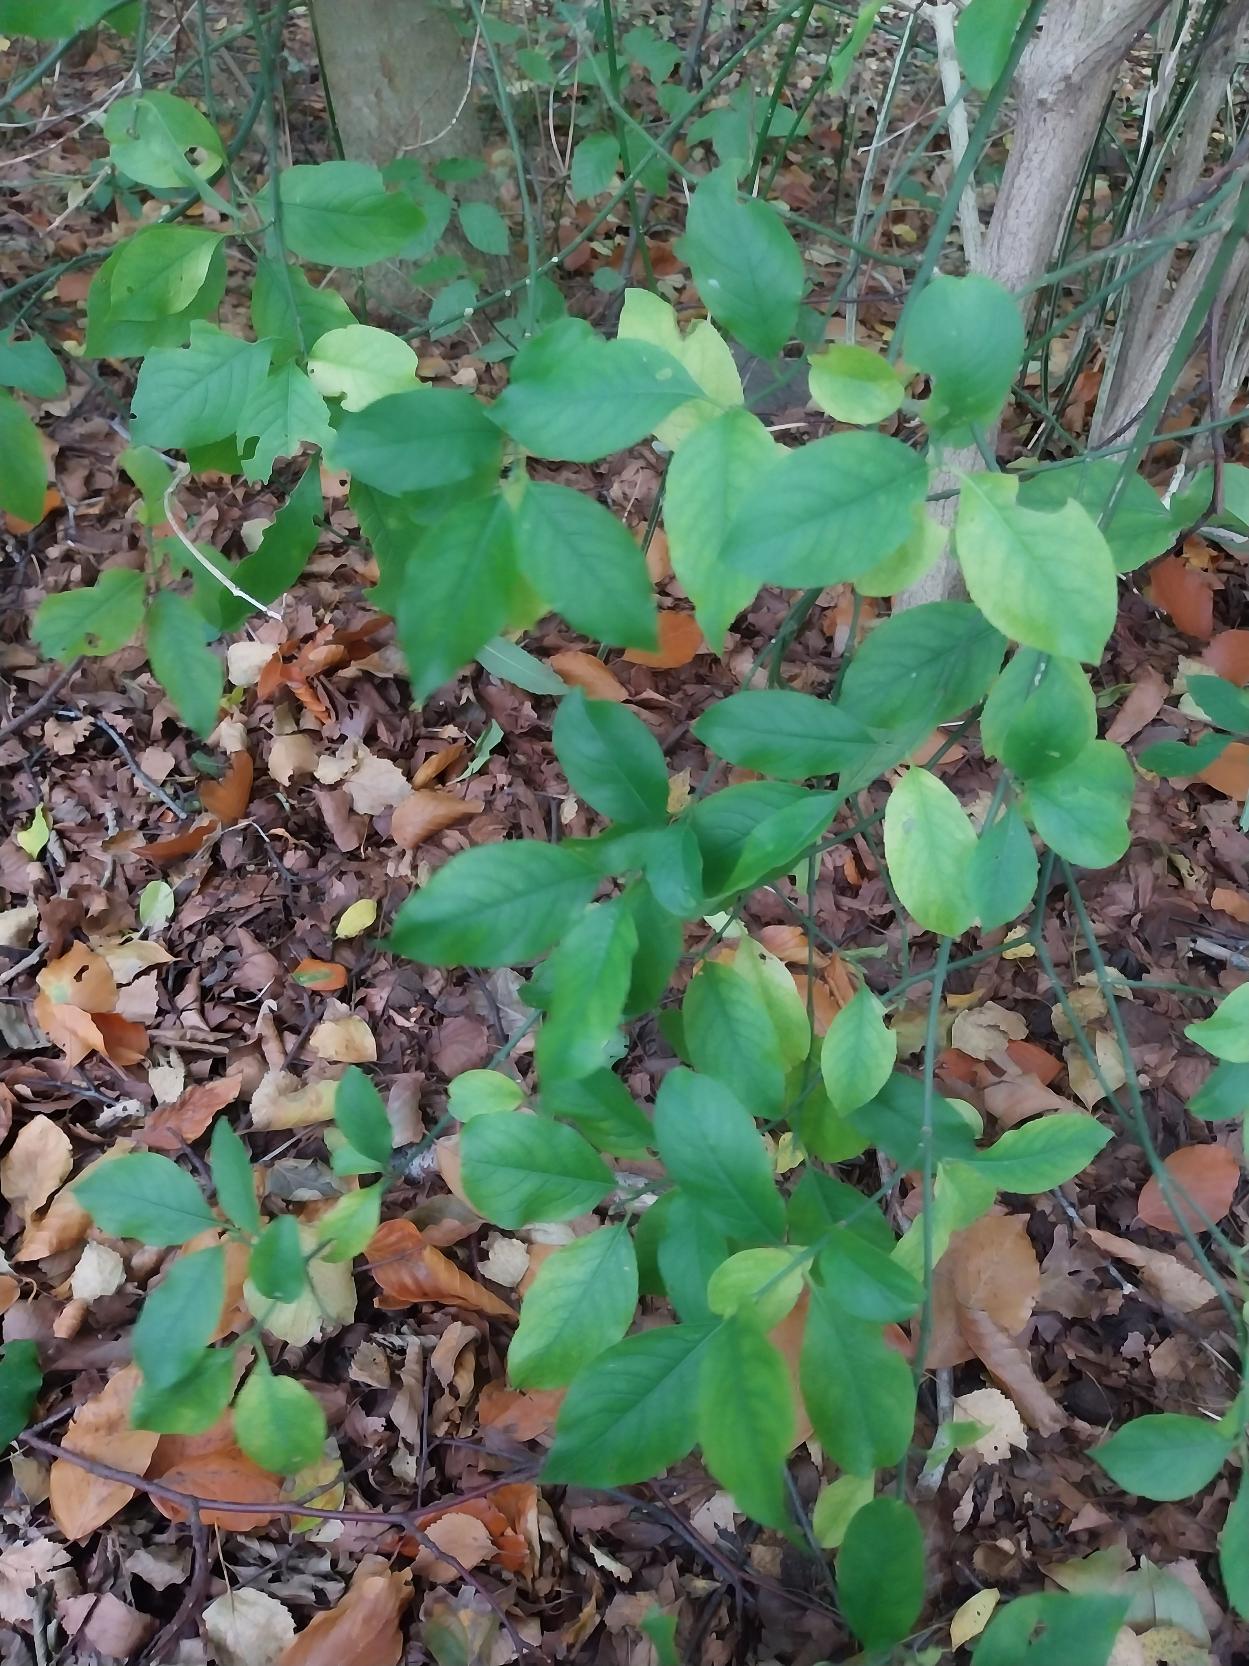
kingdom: Plantae
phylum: Tracheophyta
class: Magnoliopsida
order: Celastrales
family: Celastraceae
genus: Euonymus
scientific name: Euonymus europaeus
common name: Benved
